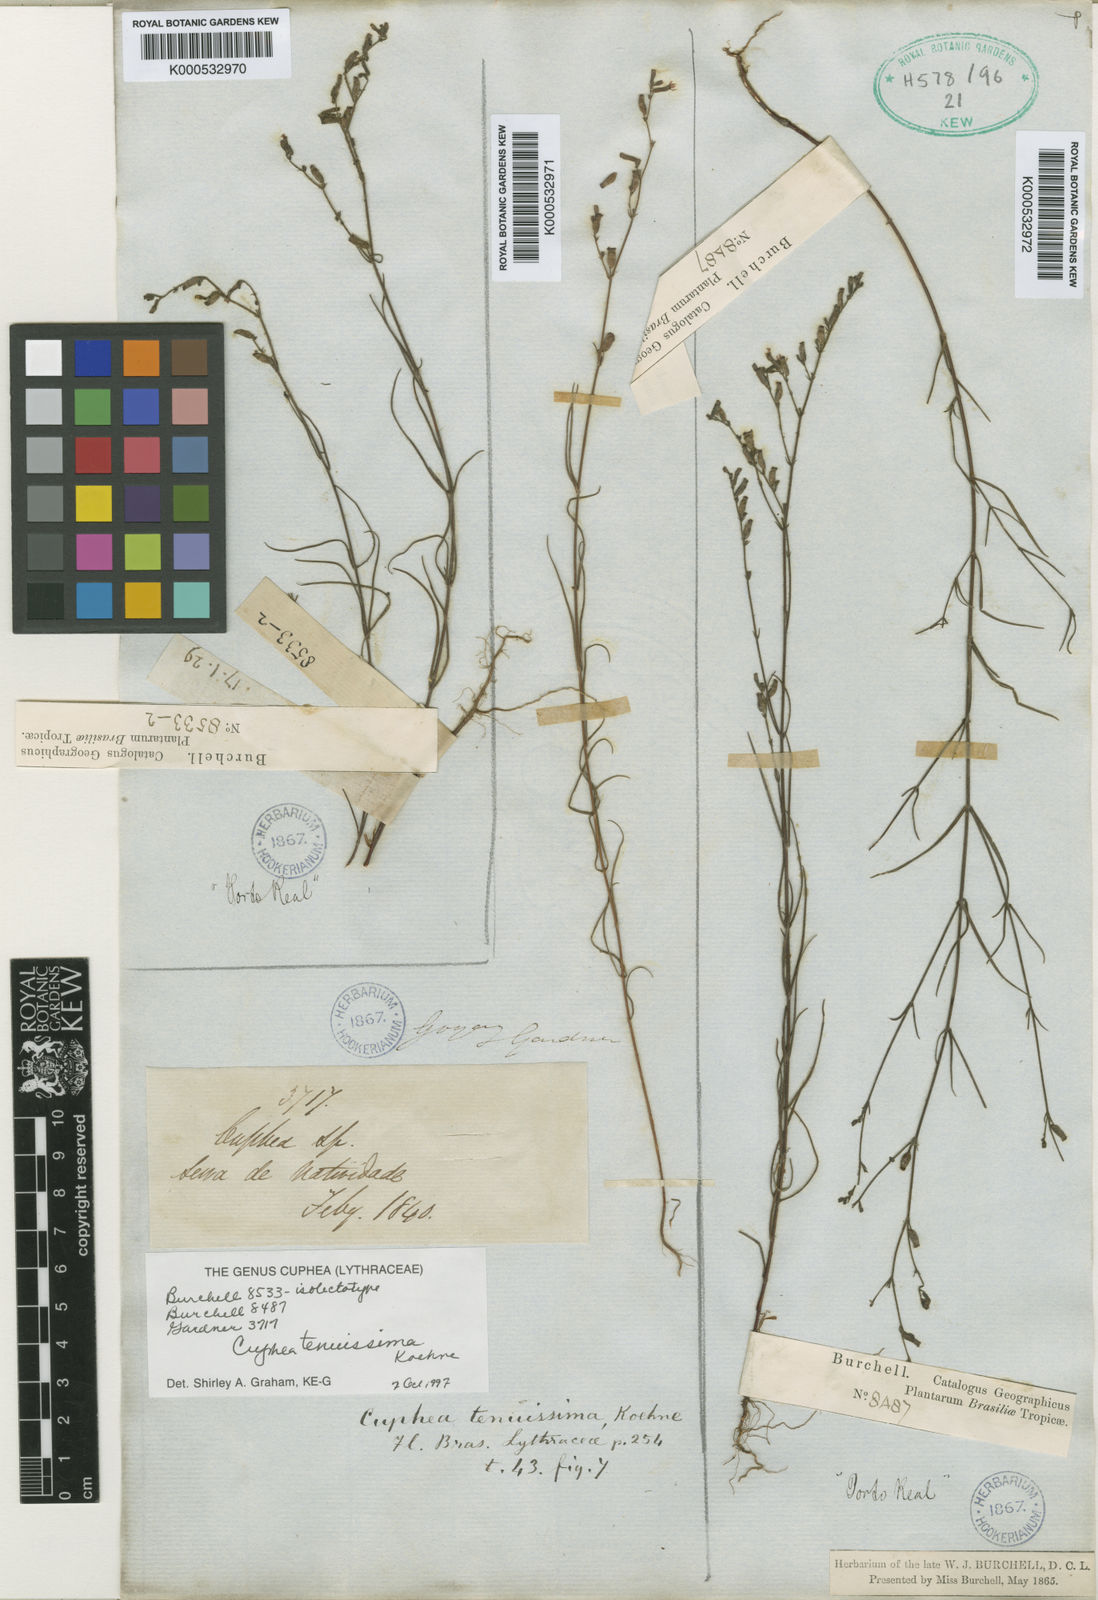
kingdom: Plantae
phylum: Tracheophyta
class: Magnoliopsida
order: Myrtales
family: Lythraceae
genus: Cuphea
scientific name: Cuphea tenuissima
